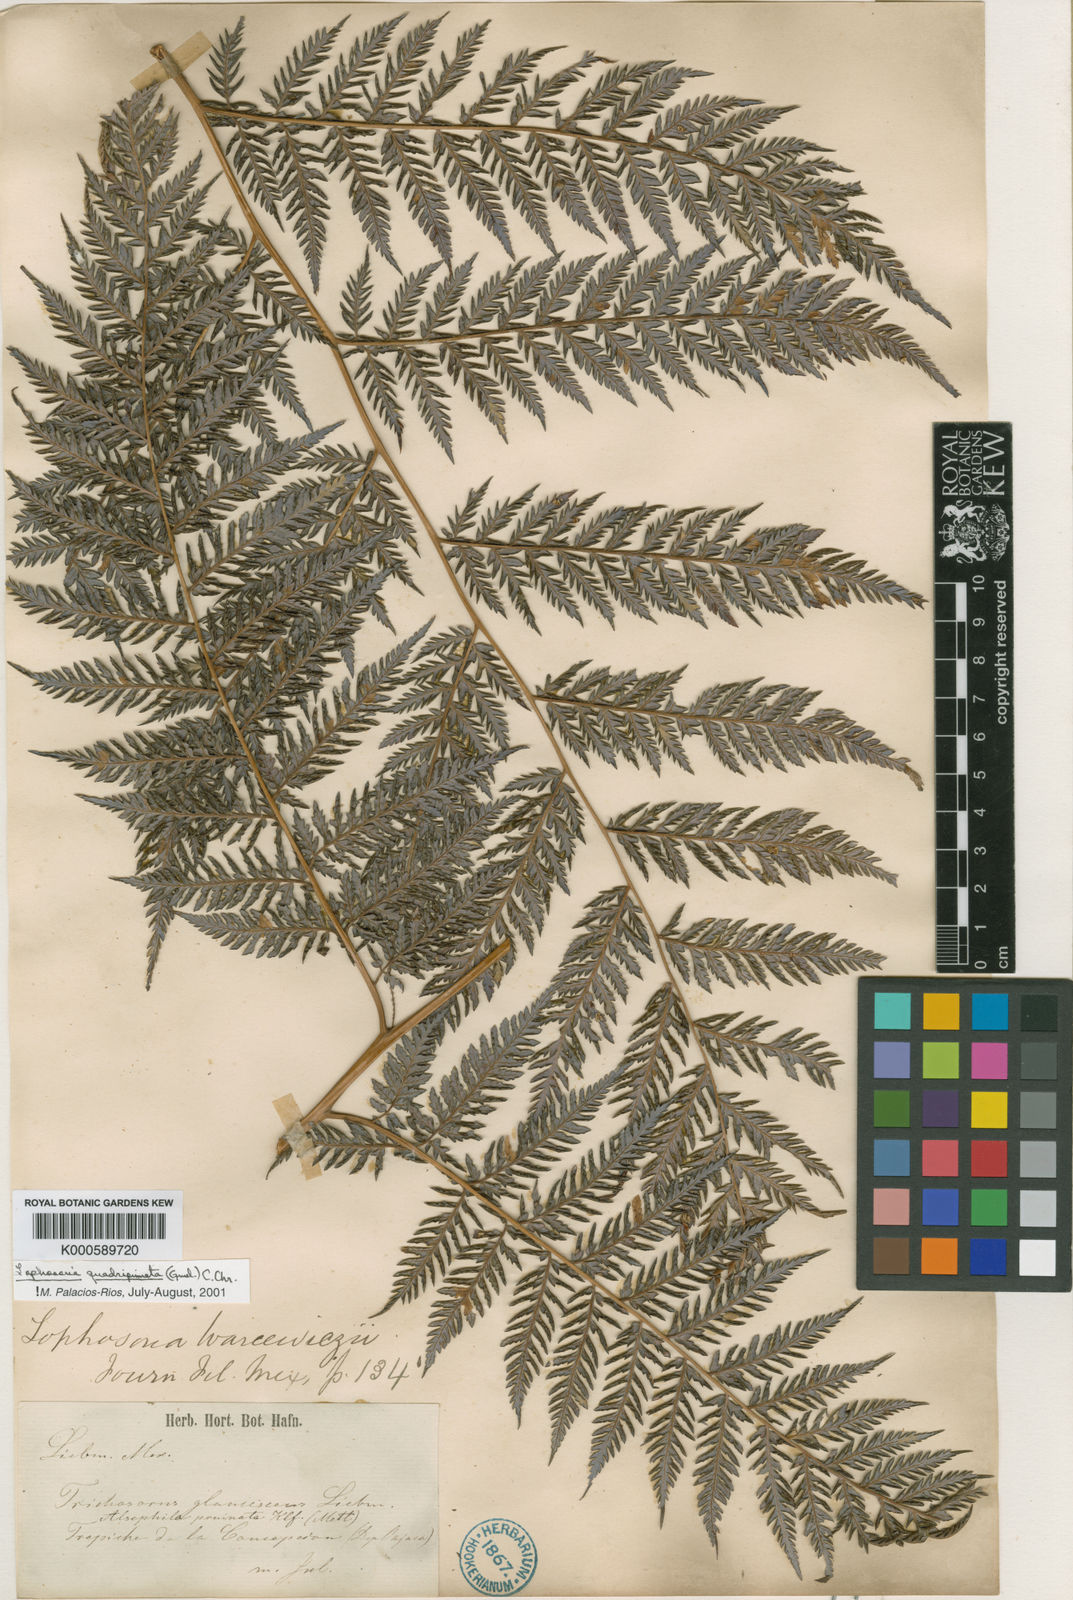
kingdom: Plantae
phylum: Tracheophyta
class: Polypodiopsida
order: Cyatheales
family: Dicksoniaceae
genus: Lophosoria
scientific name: Lophosoria quadripinnata
